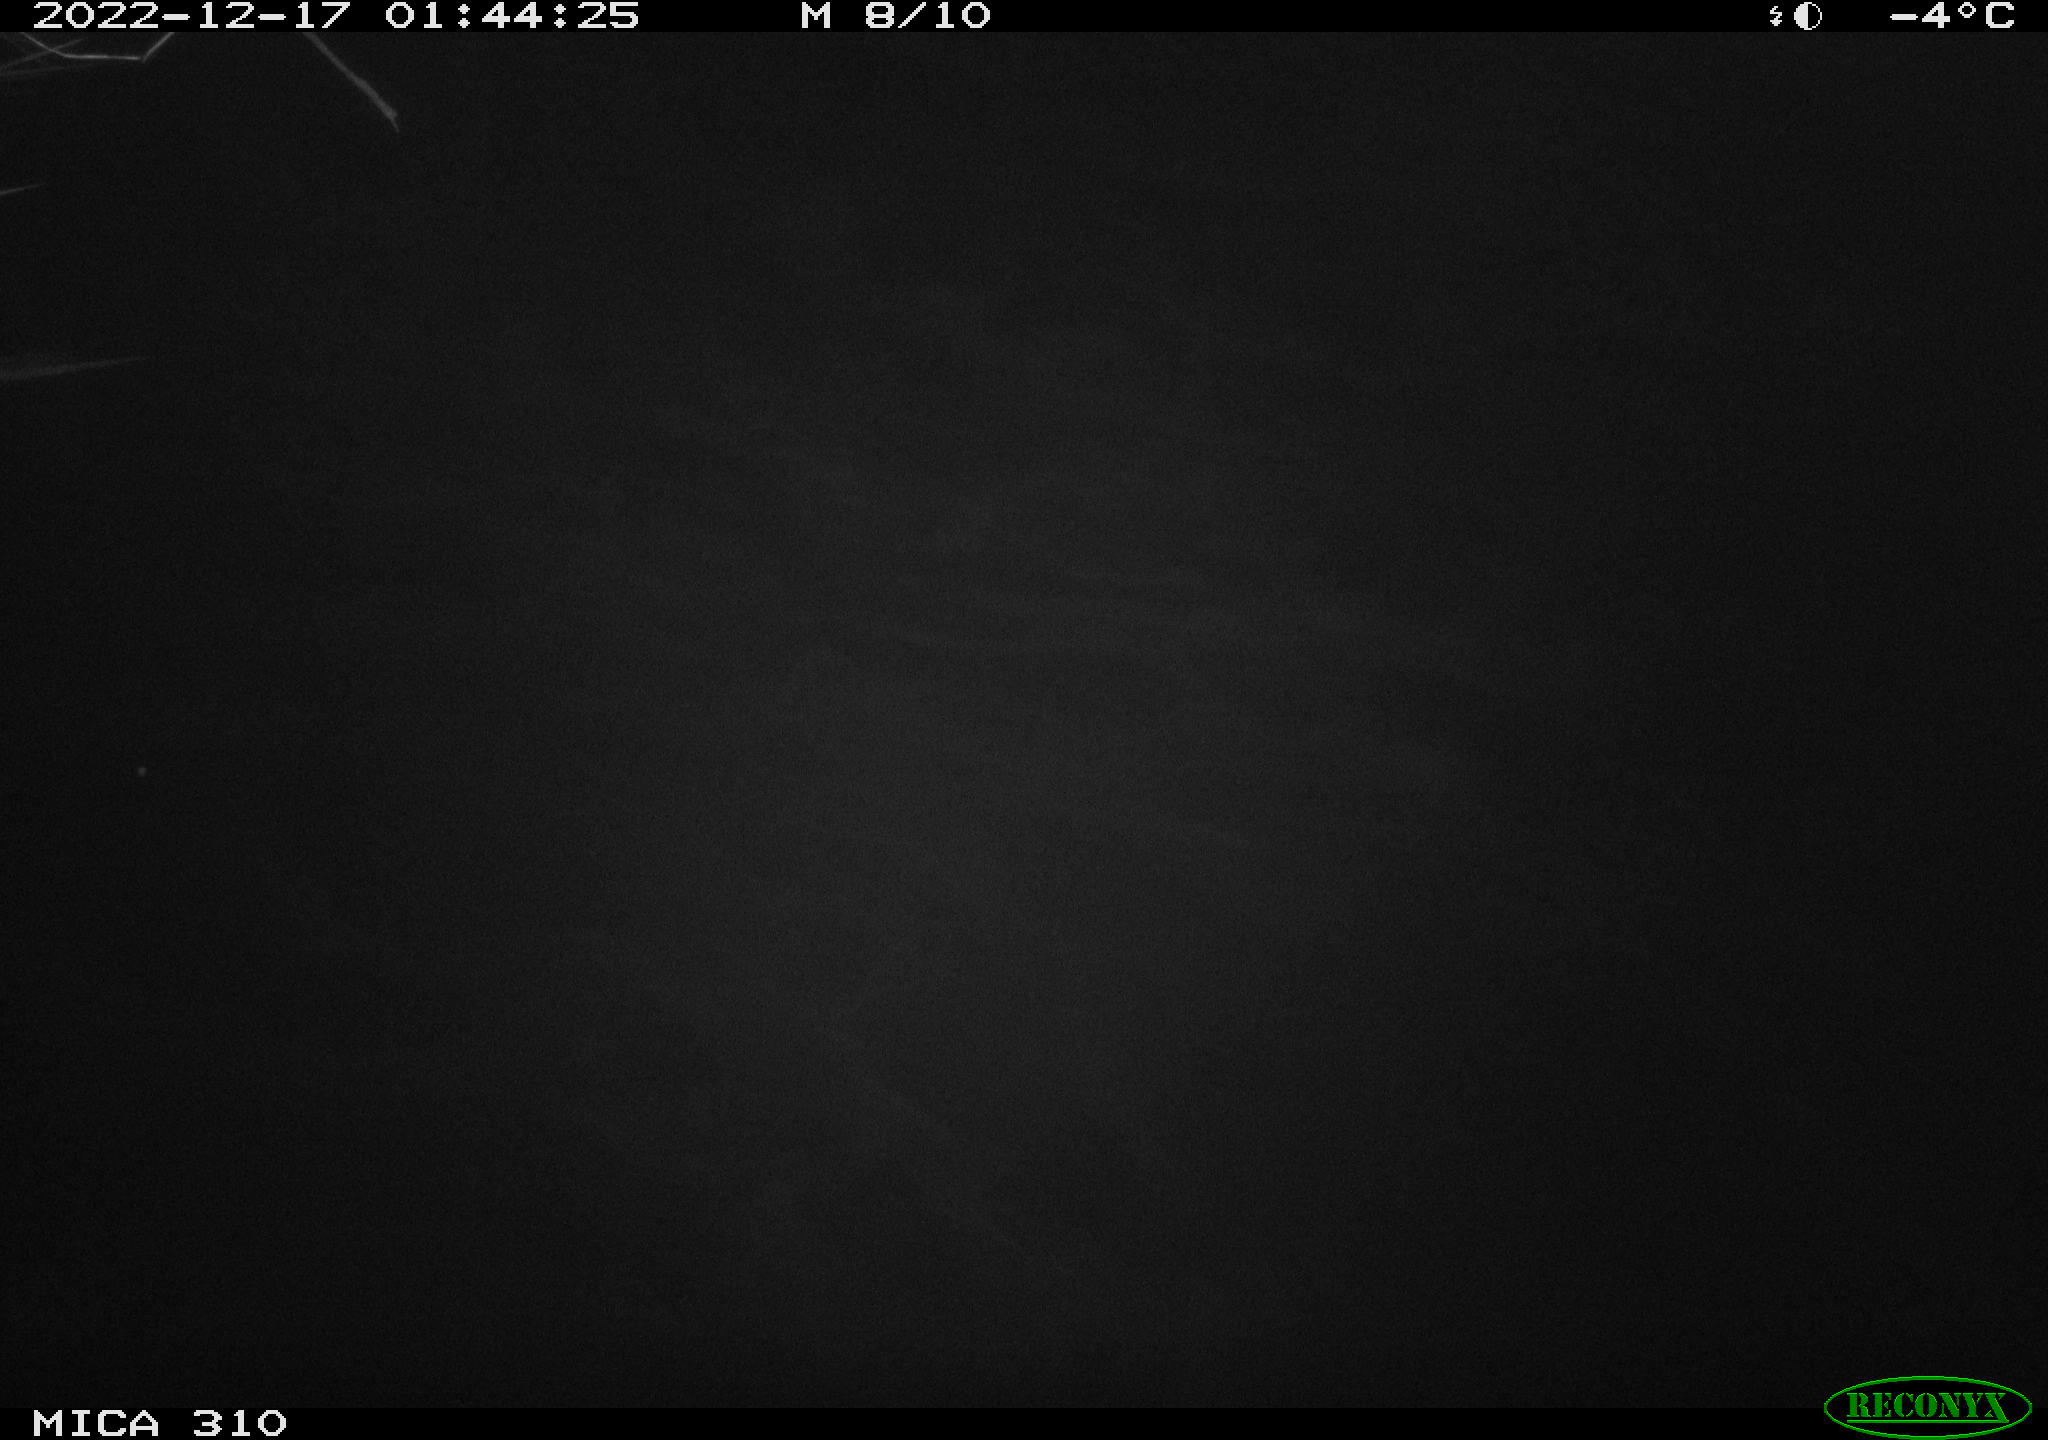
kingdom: Animalia
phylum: Chordata
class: Mammalia
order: Rodentia
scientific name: Rodentia
